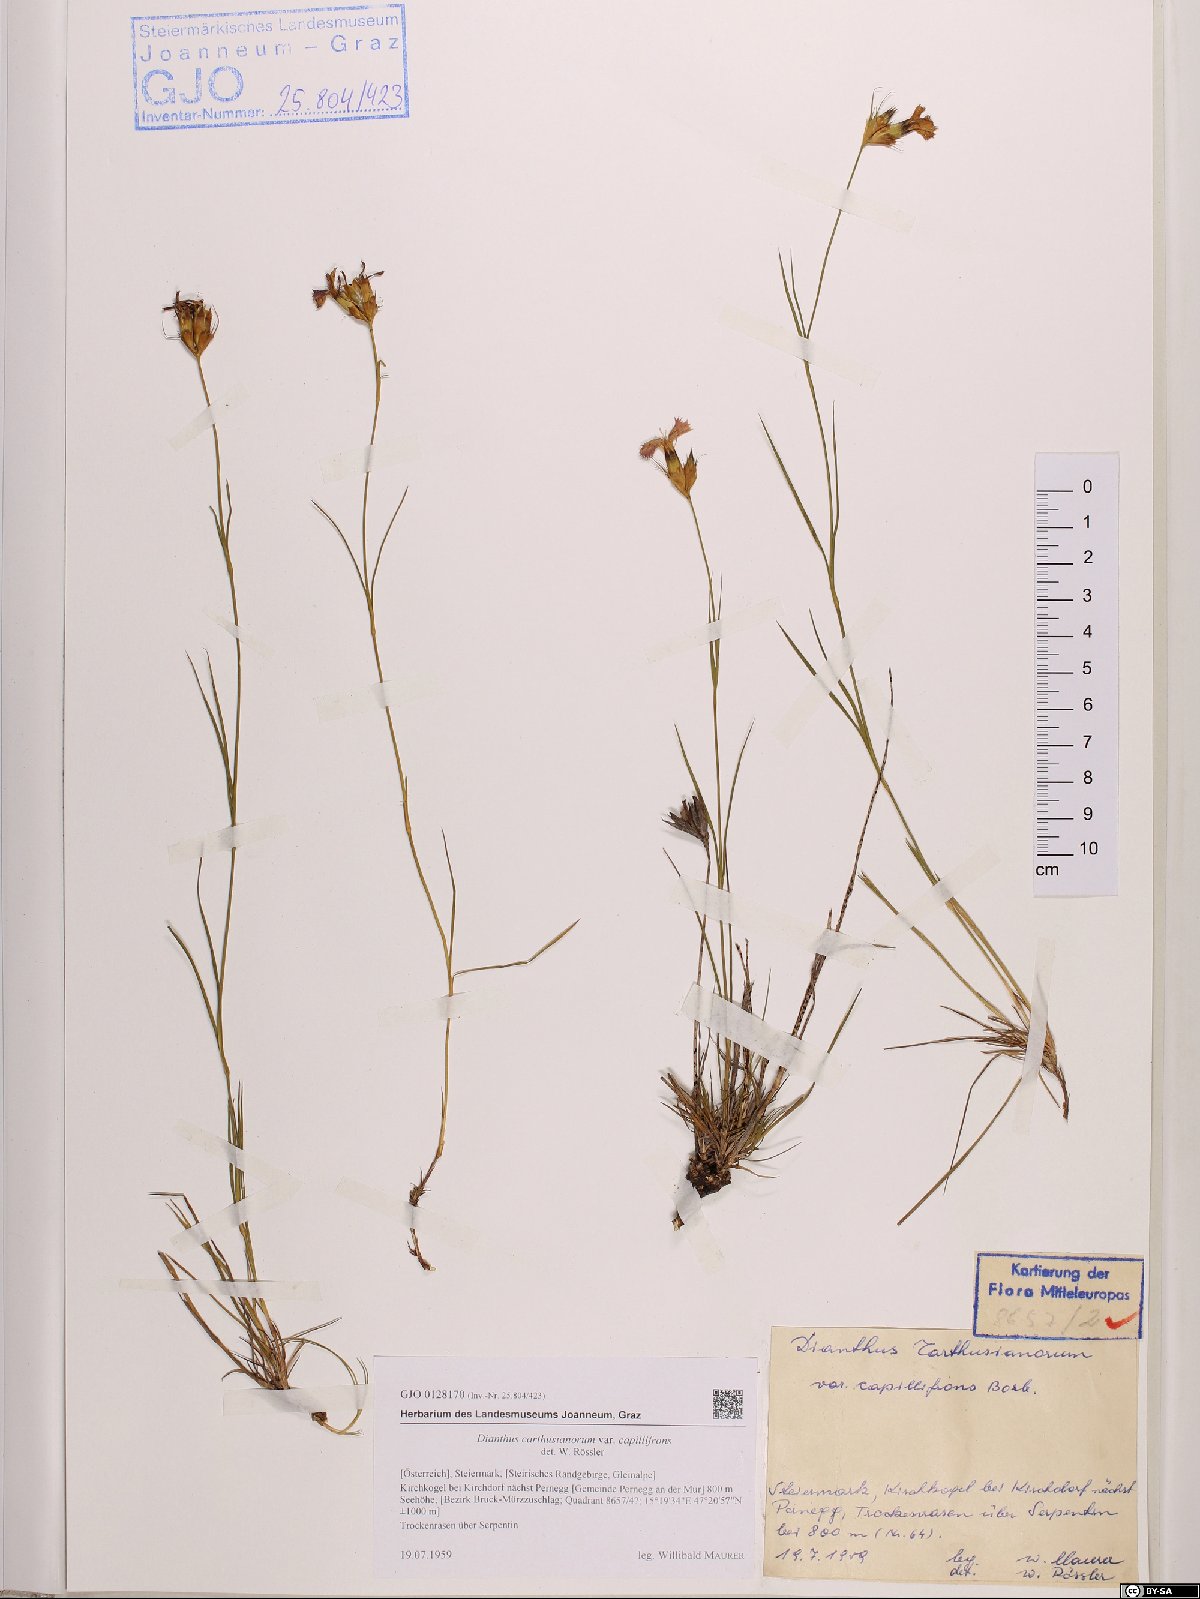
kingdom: Plantae
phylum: Tracheophyta
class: Magnoliopsida
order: Caryophyllales
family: Caryophyllaceae
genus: Dianthus
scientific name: Dianthus carthusianorum
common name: Carthusian pink
